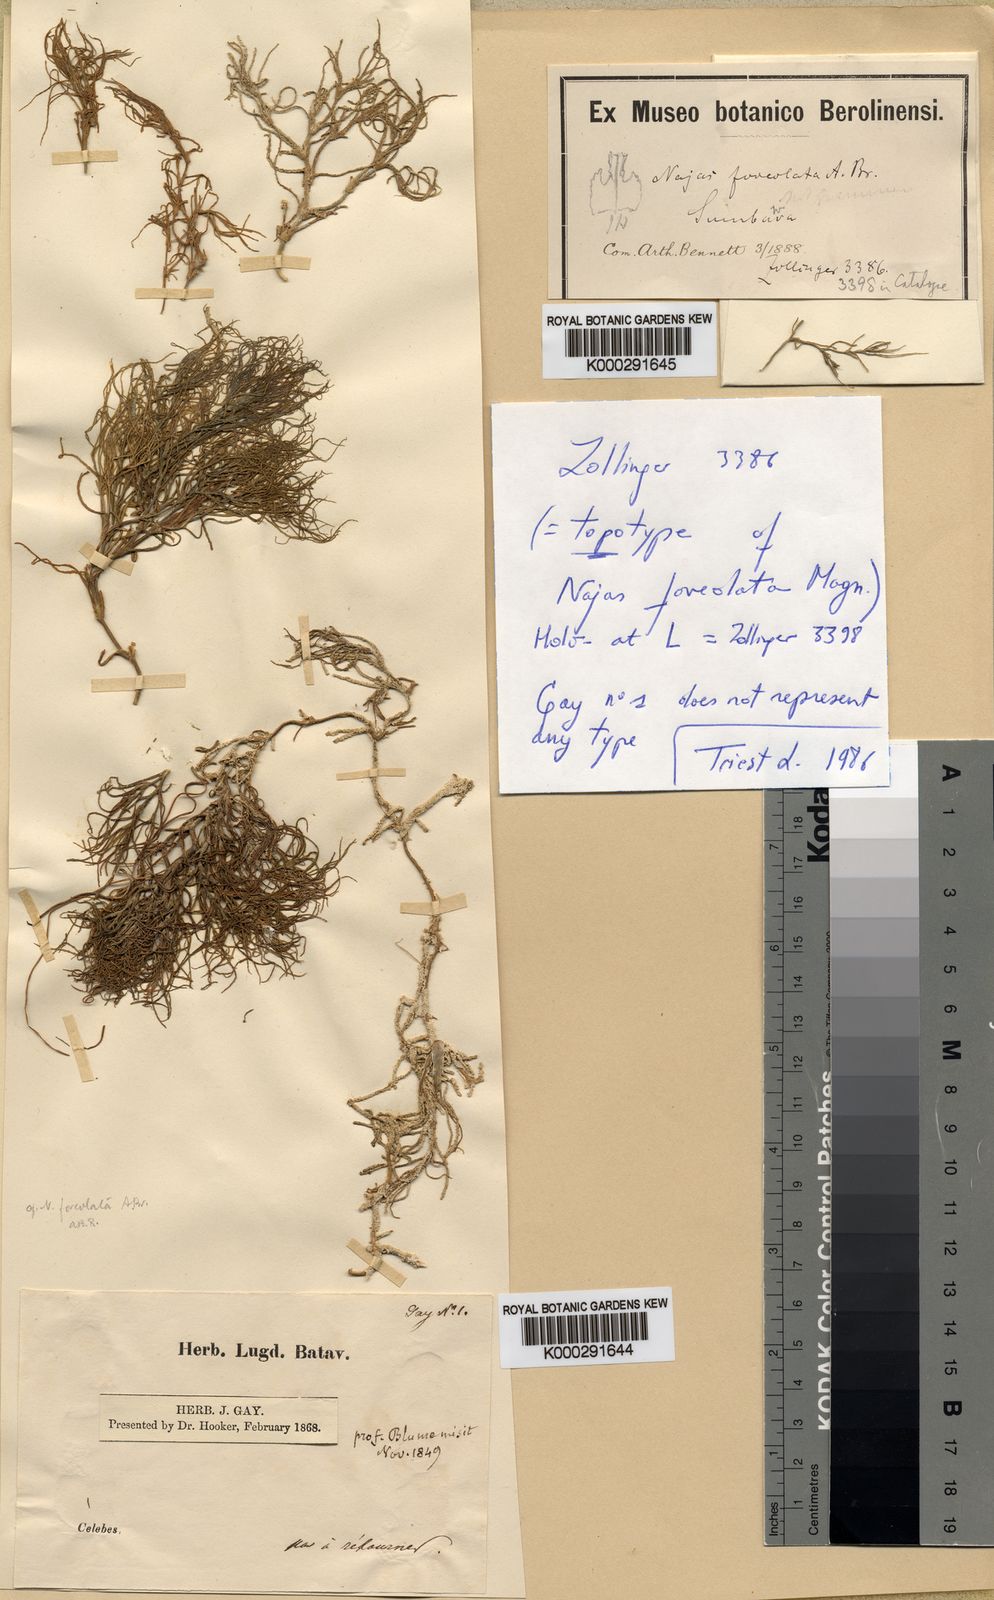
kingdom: Plantae
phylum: Tracheophyta
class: Liliopsida
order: Alismatales
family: Hydrocharitaceae
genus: Najas
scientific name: Najas
